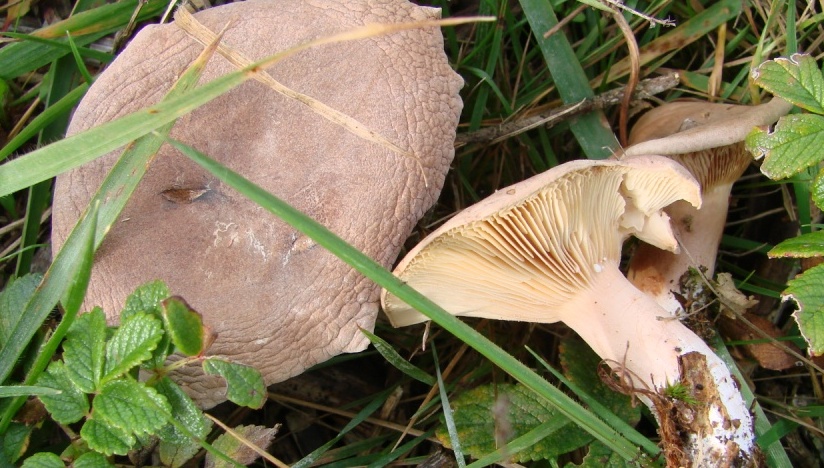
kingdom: Fungi
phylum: Basidiomycota
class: Agaricomycetes
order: Russulales
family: Russulaceae
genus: Lactarius
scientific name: Lactarius hepaticus
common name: leverbrun mælkehat
